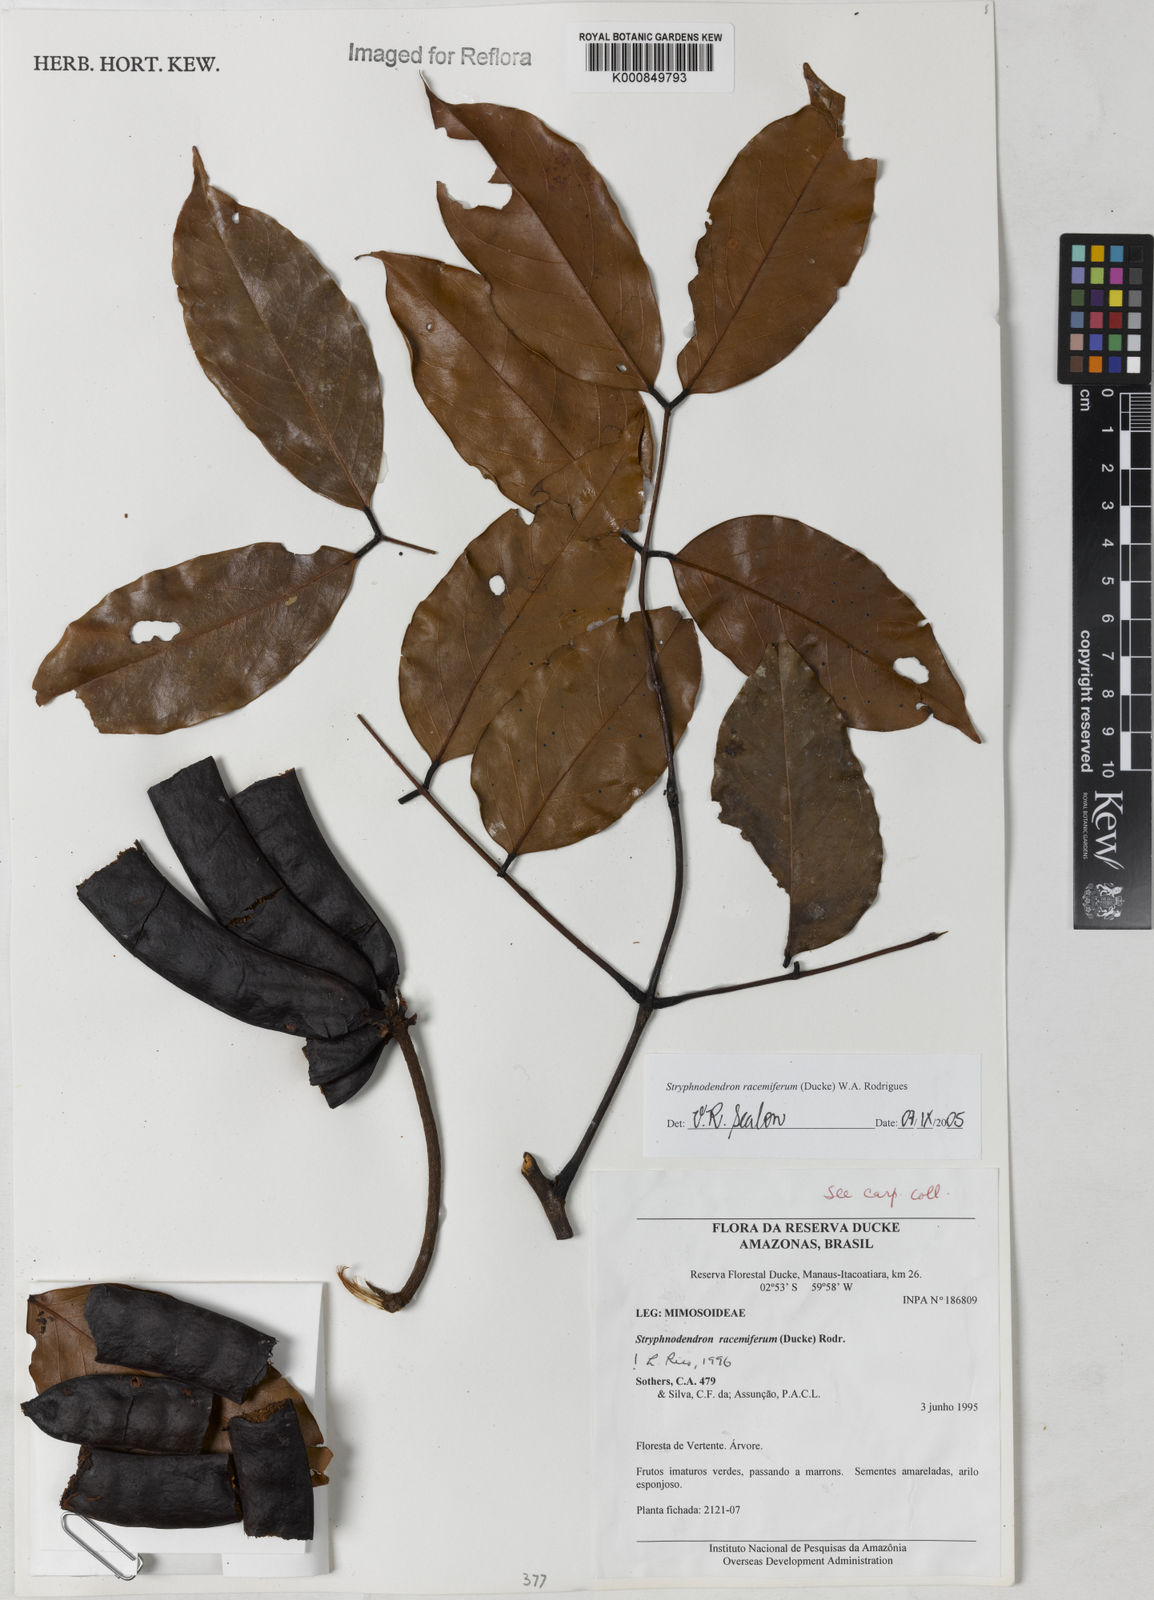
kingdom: Plantae
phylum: Tracheophyta
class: Magnoliopsida
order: Fabales
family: Fabaceae
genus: Stryphnodendron
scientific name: Stryphnodendron
